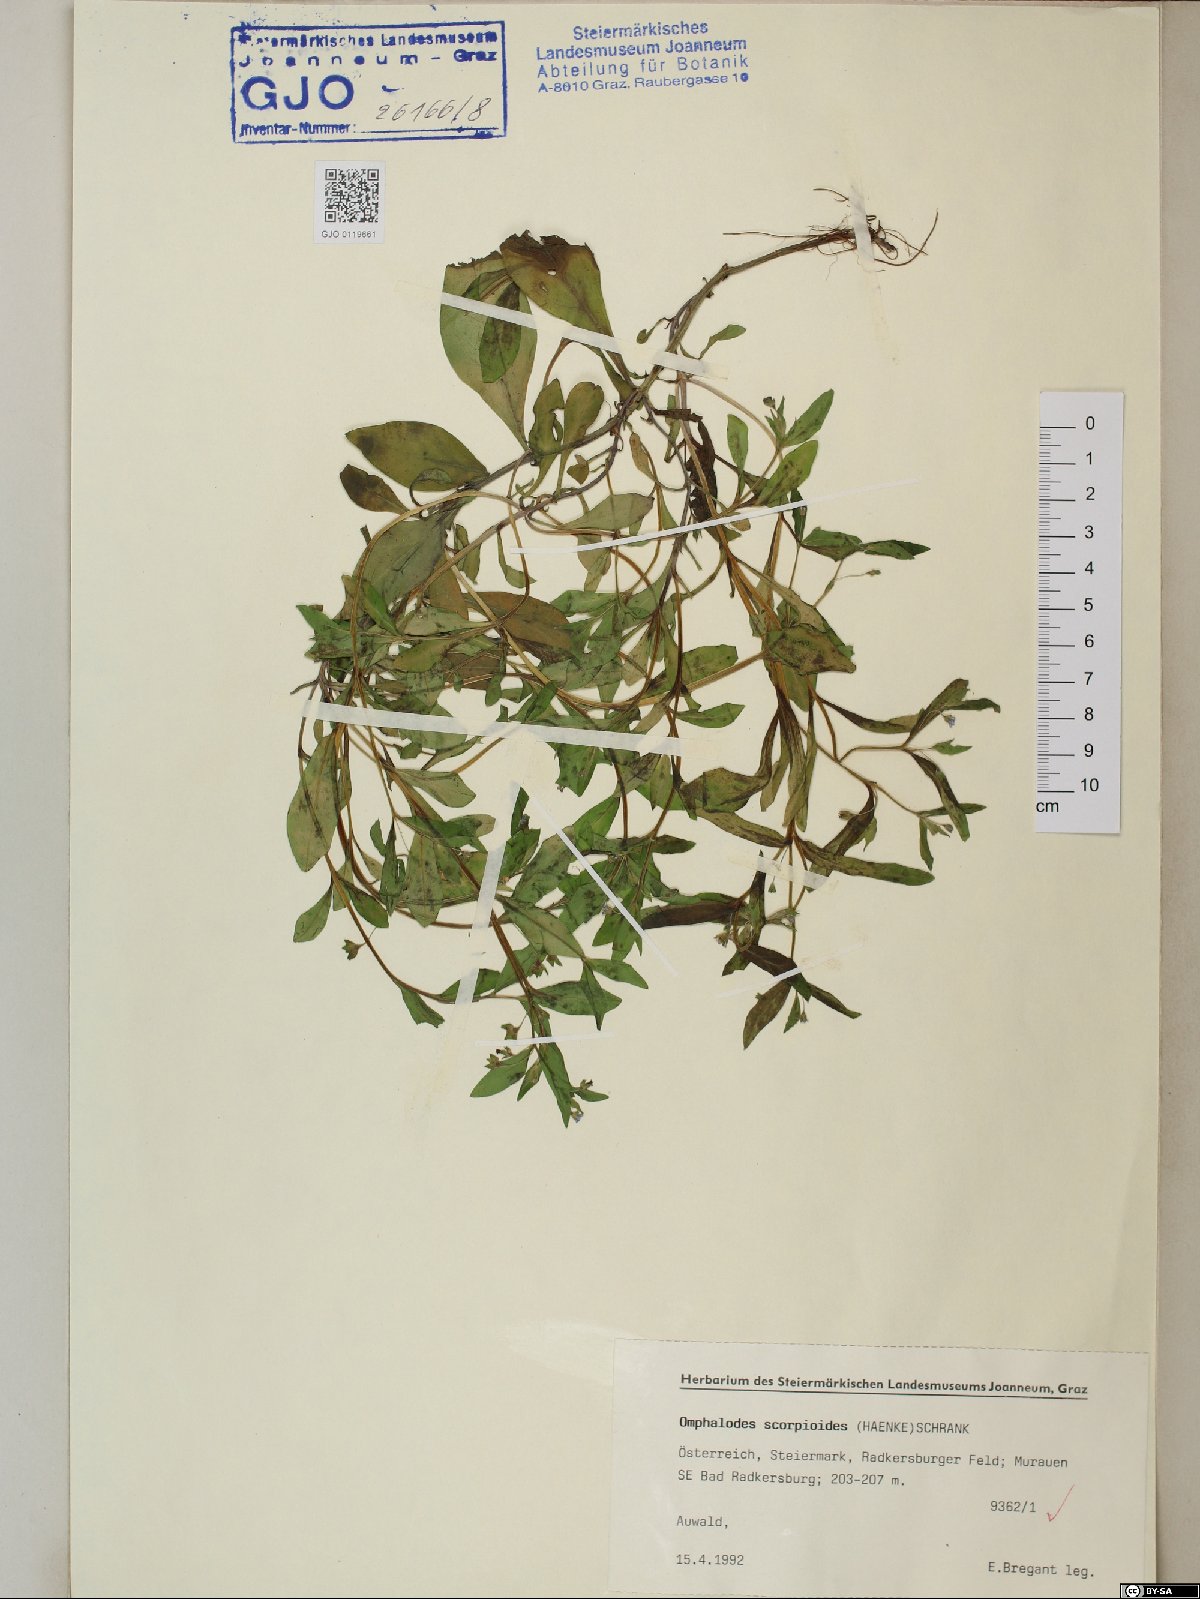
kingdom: Plantae
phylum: Tracheophyta
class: Magnoliopsida
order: Boraginales
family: Boraginaceae
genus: Memoremea
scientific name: Memoremea scorpioides
